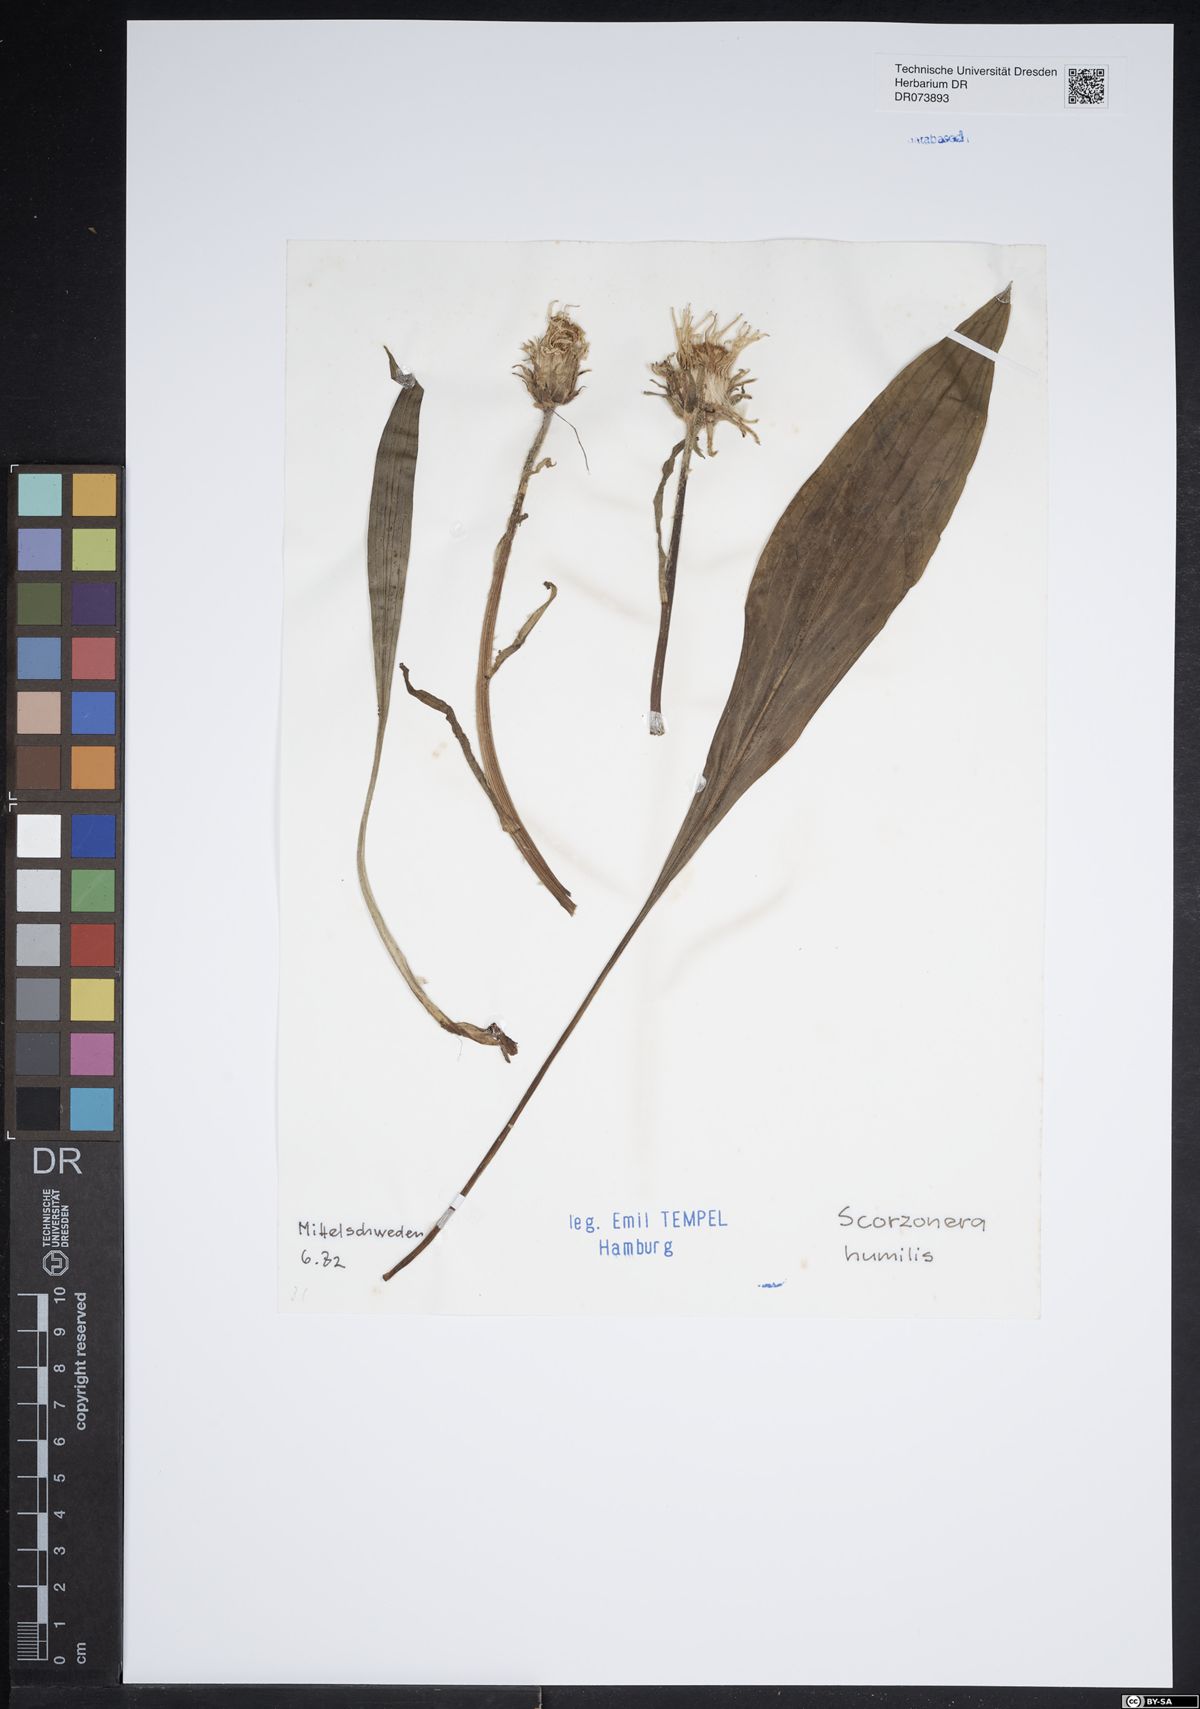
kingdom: Plantae
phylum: Tracheophyta
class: Magnoliopsida
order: Asterales
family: Asteraceae
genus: Scorzonera
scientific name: Scorzonera humilis
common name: Viper's-grass
